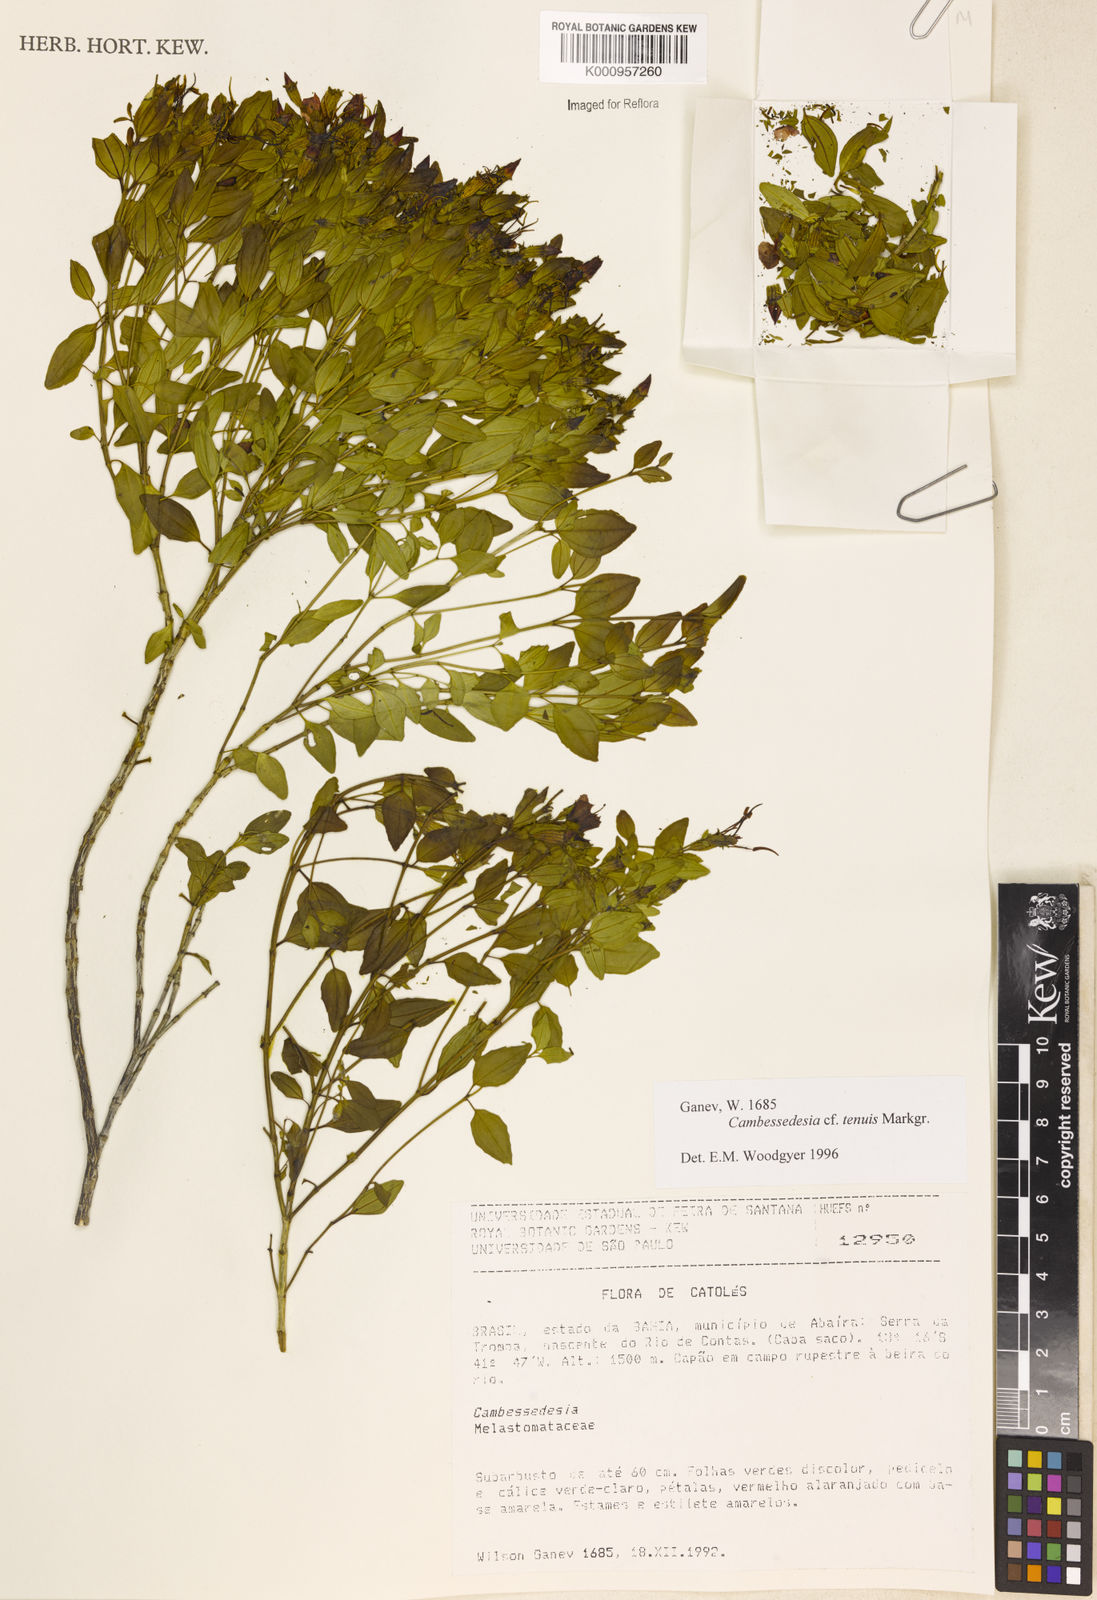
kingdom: Plantae
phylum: Tracheophyta
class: Magnoliopsida
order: Myrtales
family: Melastomataceae
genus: Cambessedesia
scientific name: Cambessedesia tenuis
